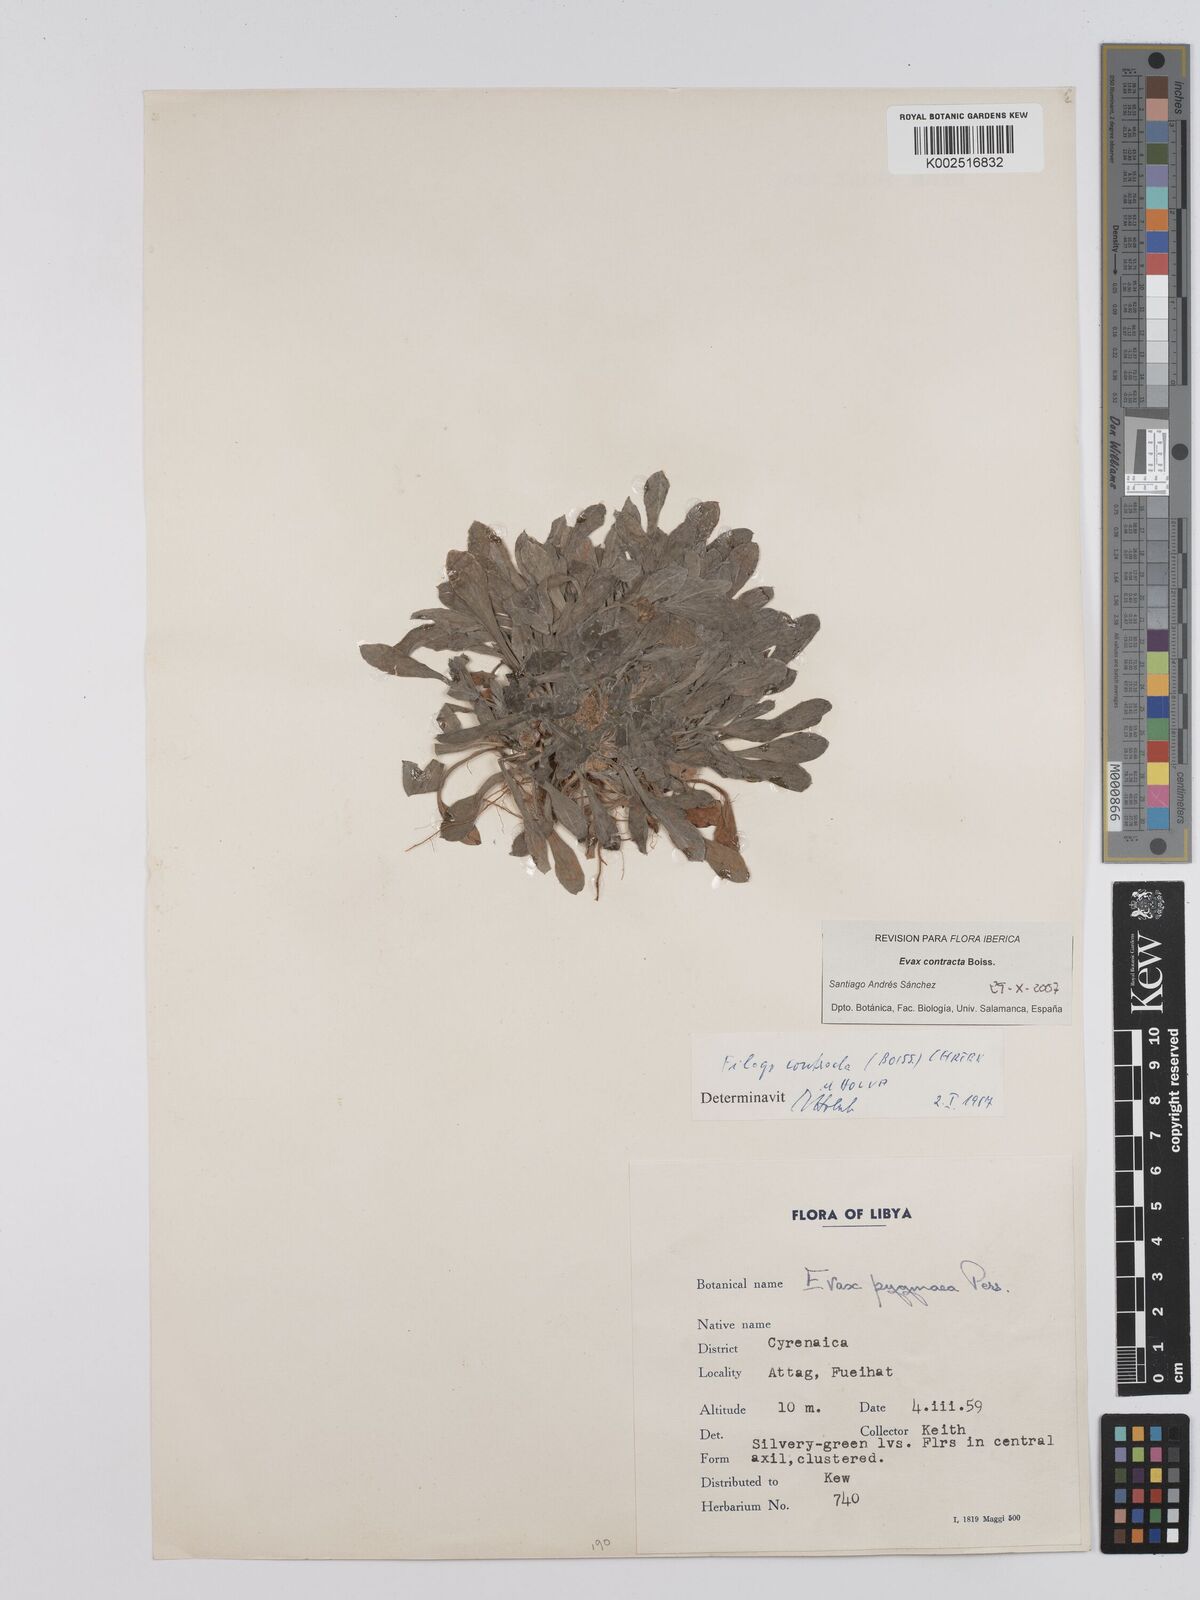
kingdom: Plantae
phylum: Tracheophyta
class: Magnoliopsida
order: Asterales
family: Asteraceae
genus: Filago
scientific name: Filago contracta
